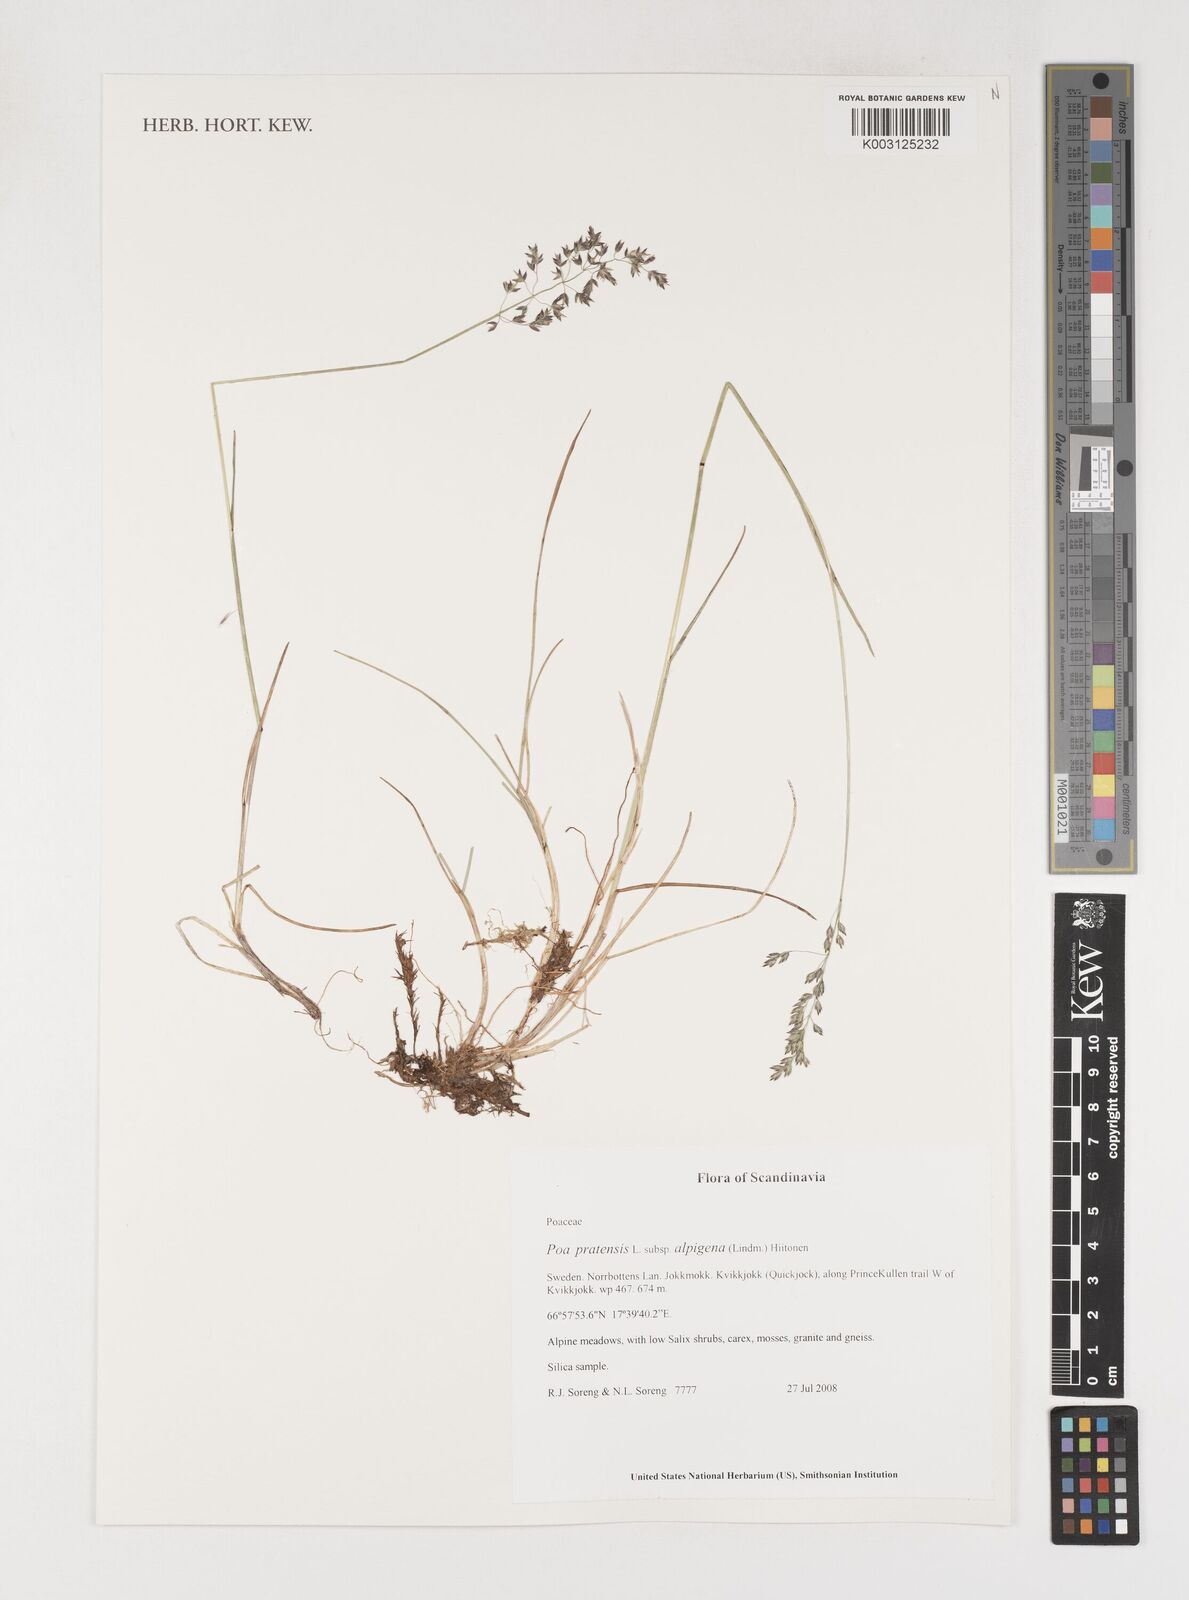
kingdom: Plantae
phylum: Tracheophyta
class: Liliopsida
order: Poales
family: Poaceae
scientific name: Poaceae
